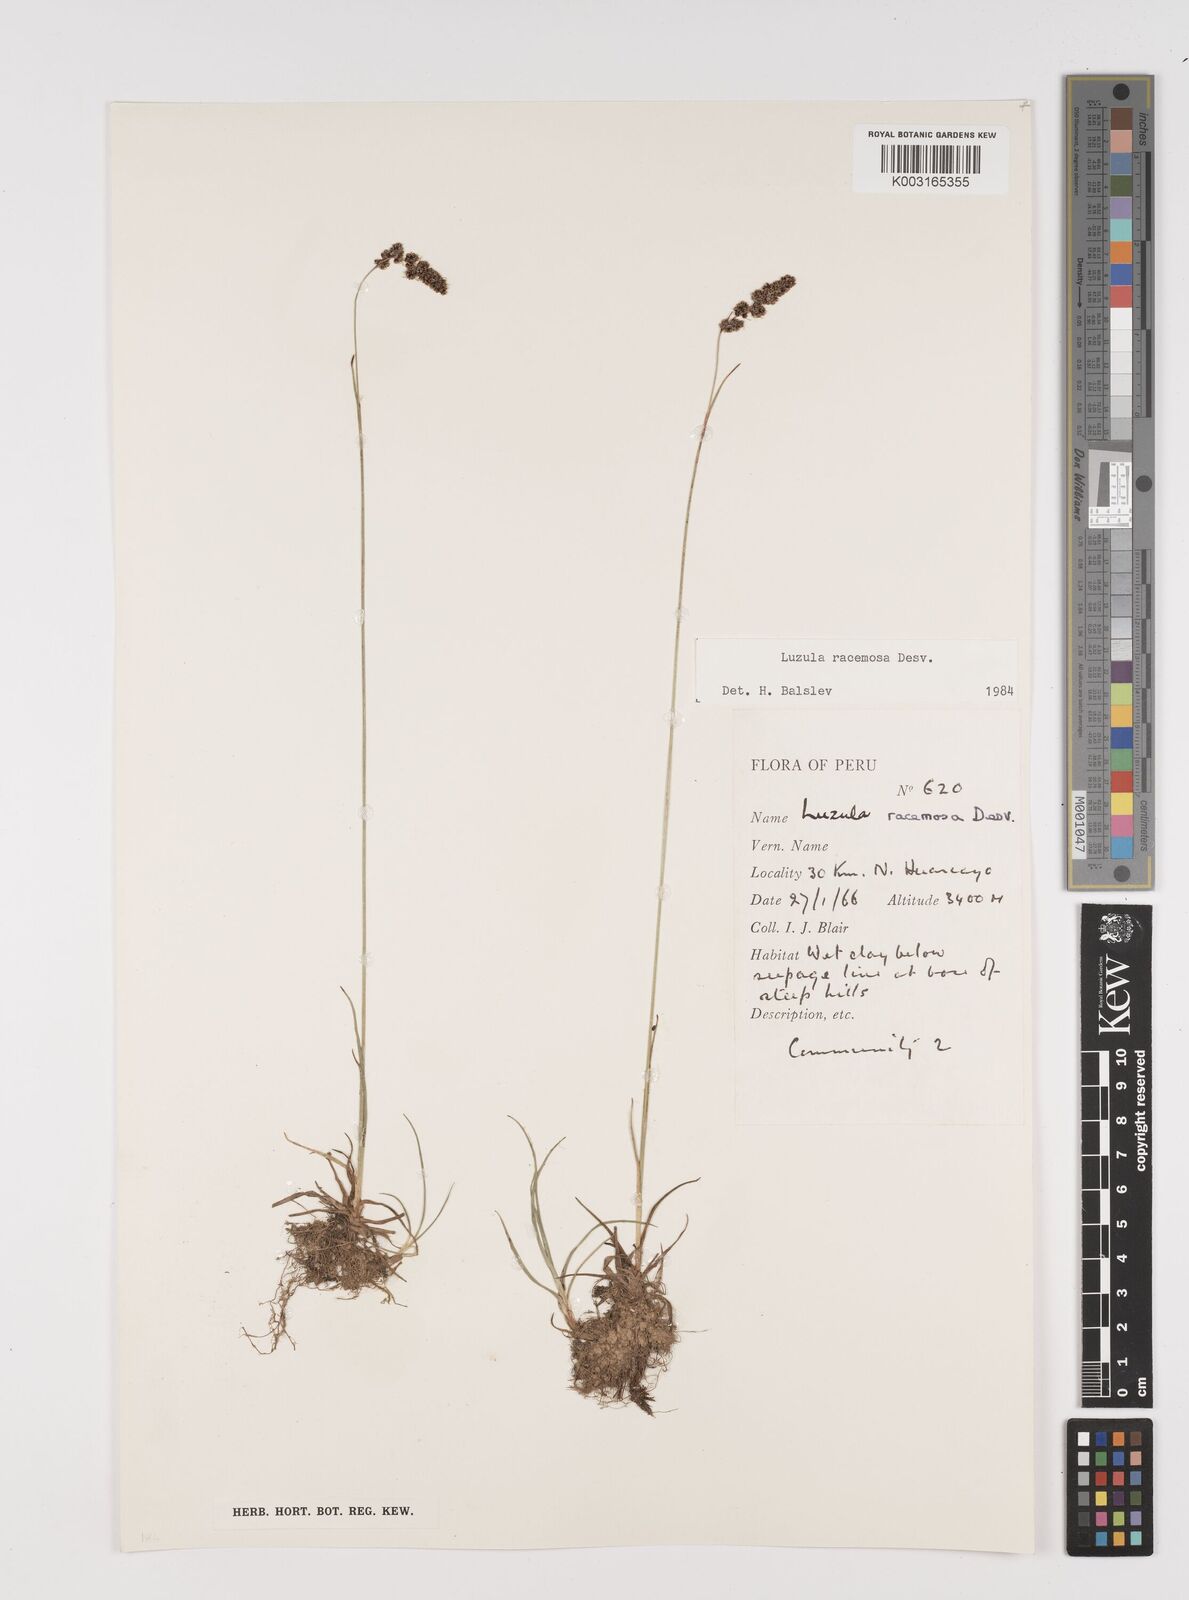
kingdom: Plantae
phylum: Tracheophyta
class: Liliopsida
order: Poales
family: Juncaceae
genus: Luzula
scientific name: Luzula racemosa
